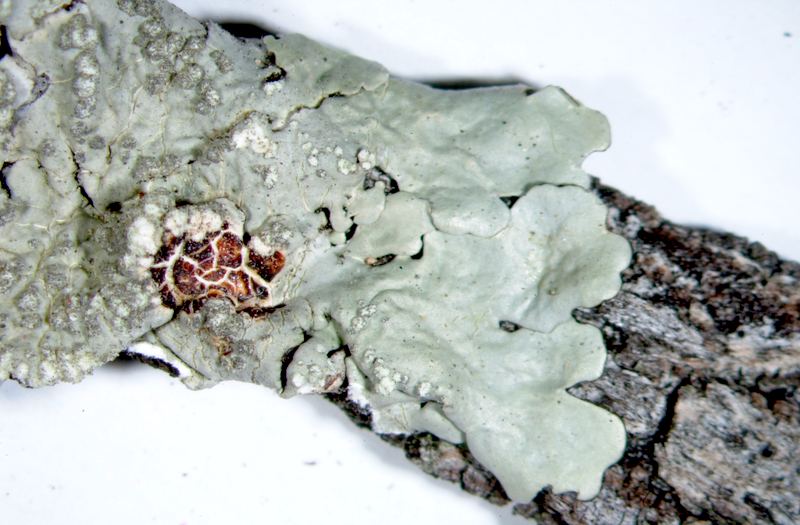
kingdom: Fungi
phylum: Ascomycota
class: Lecanoromycetes
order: Lecanorales
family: Parmeliaceae
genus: Parmotrema
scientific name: Parmotrema epileucum
